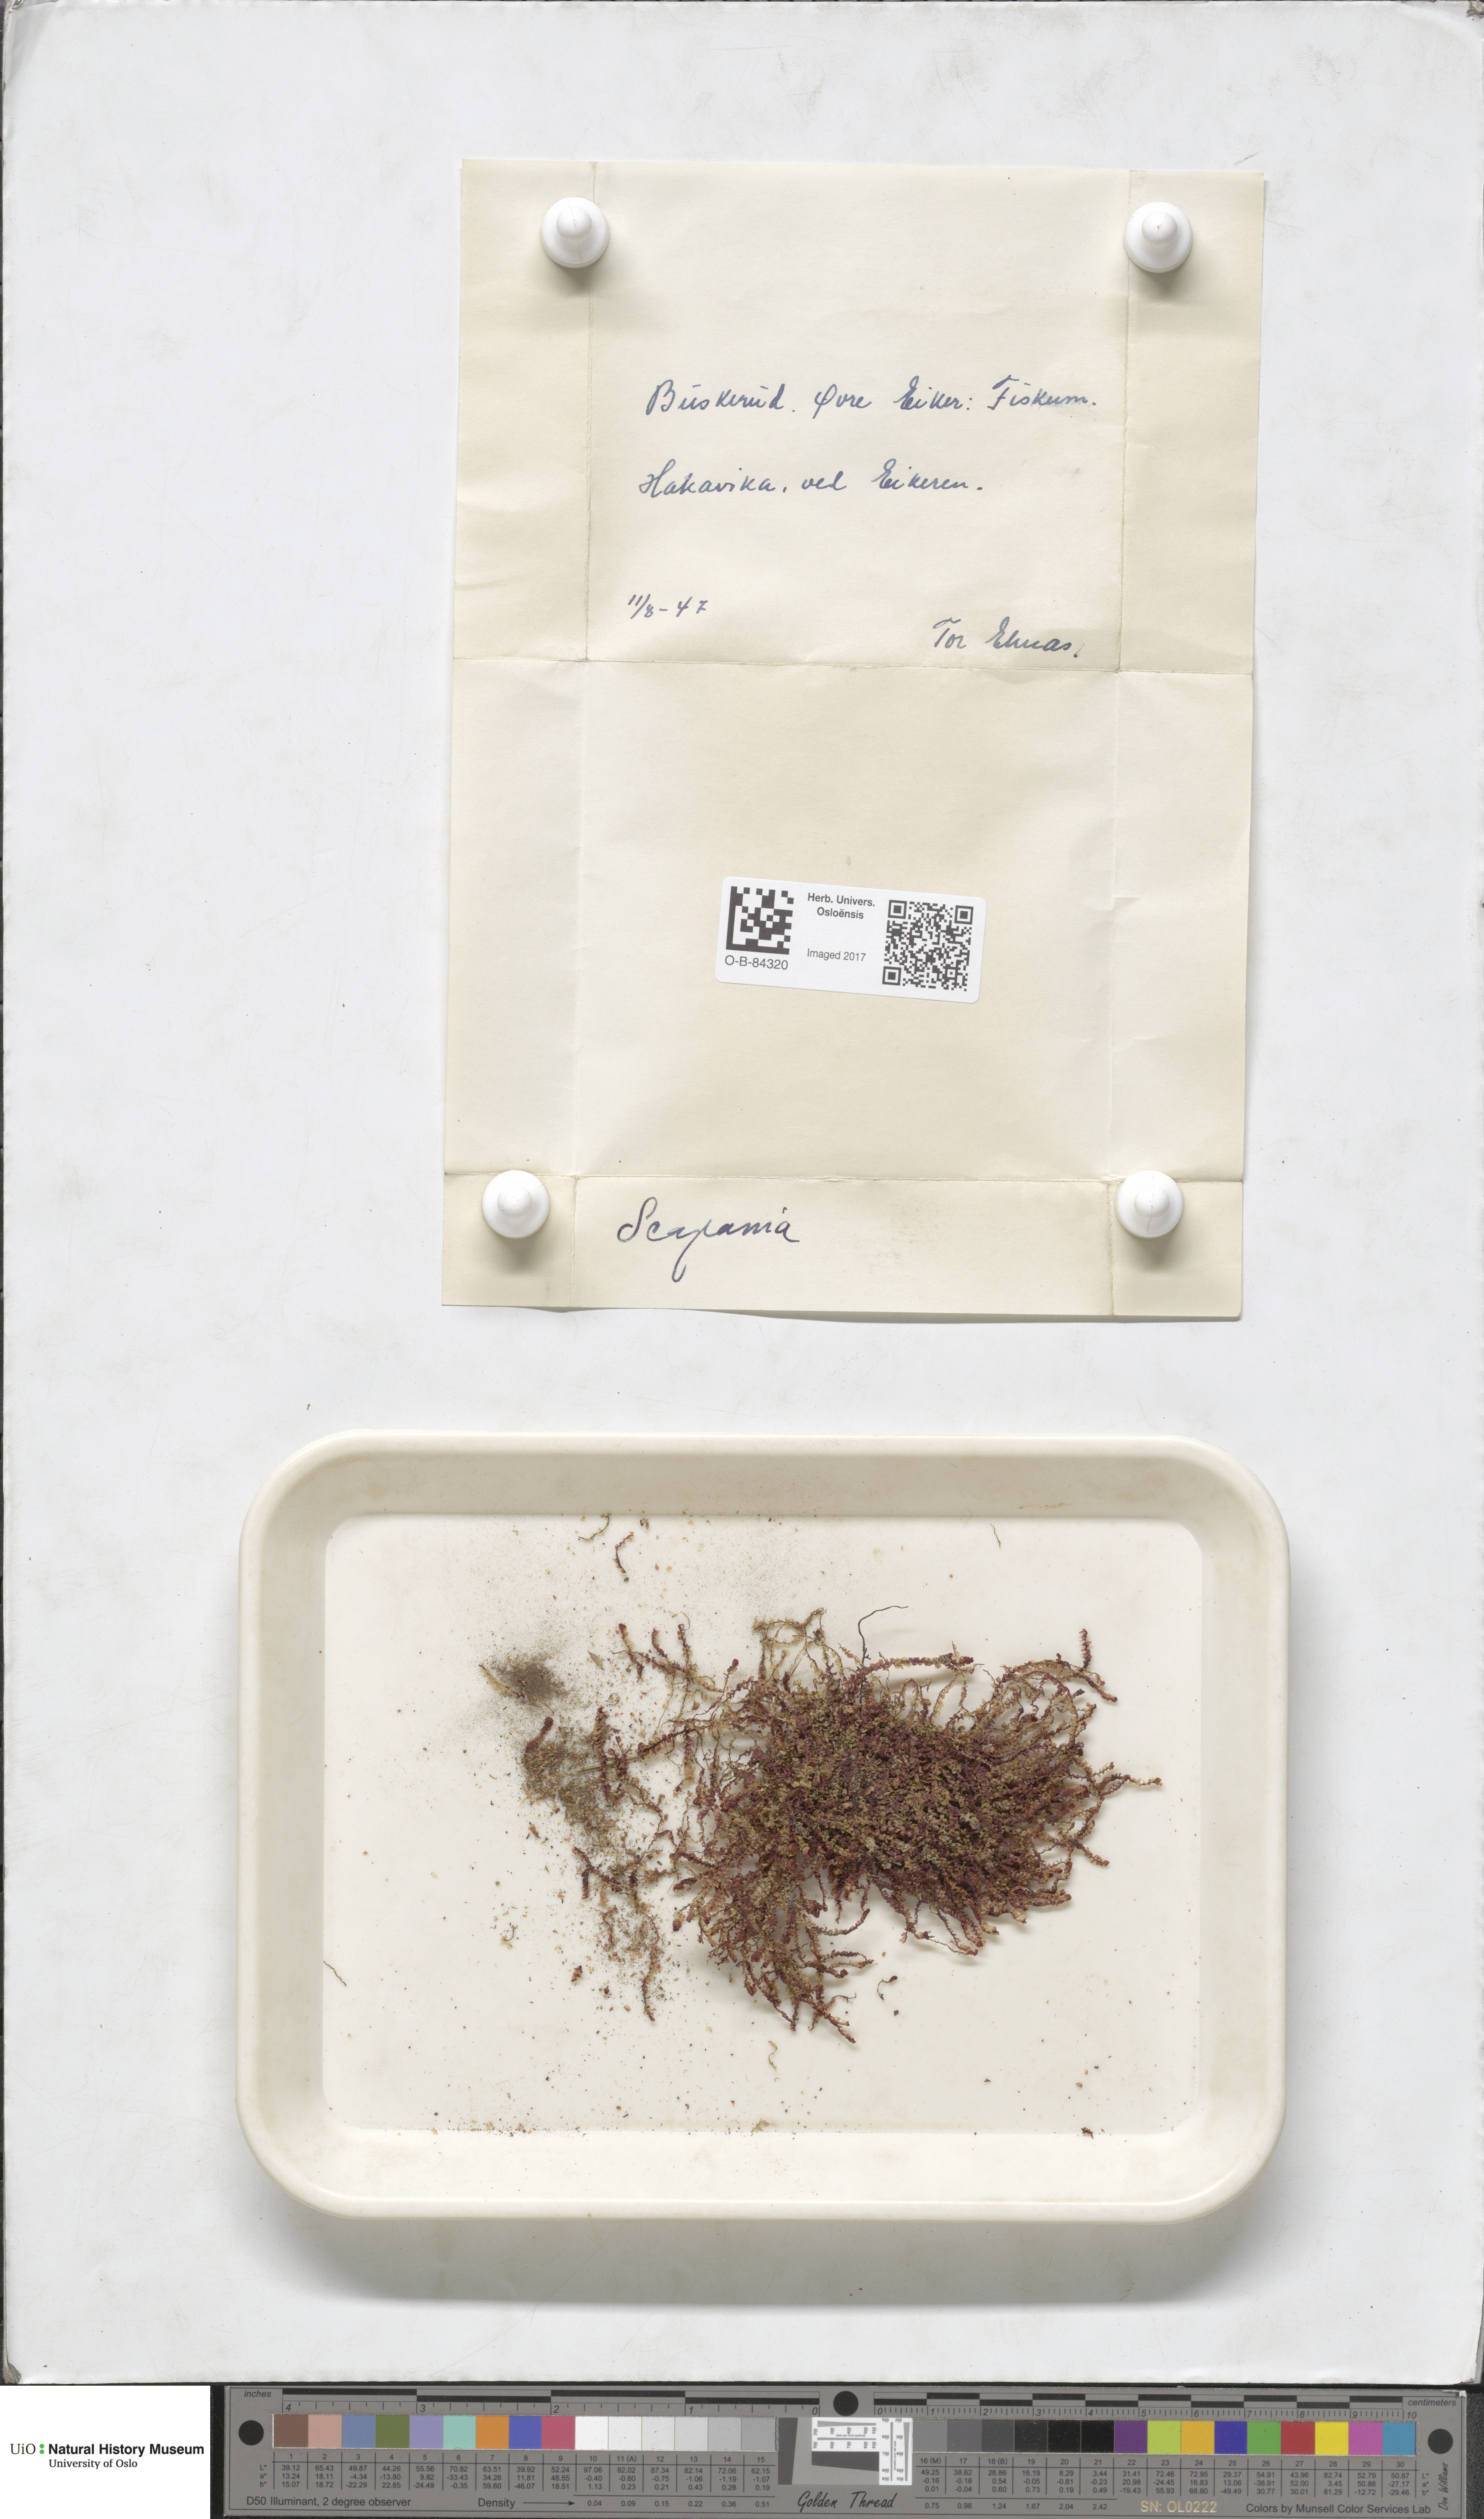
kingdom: Plantae
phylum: Marchantiophyta
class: Jungermanniopsida
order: Jungermanniales
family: Scapaniaceae
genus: Scapania
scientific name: Scapania
